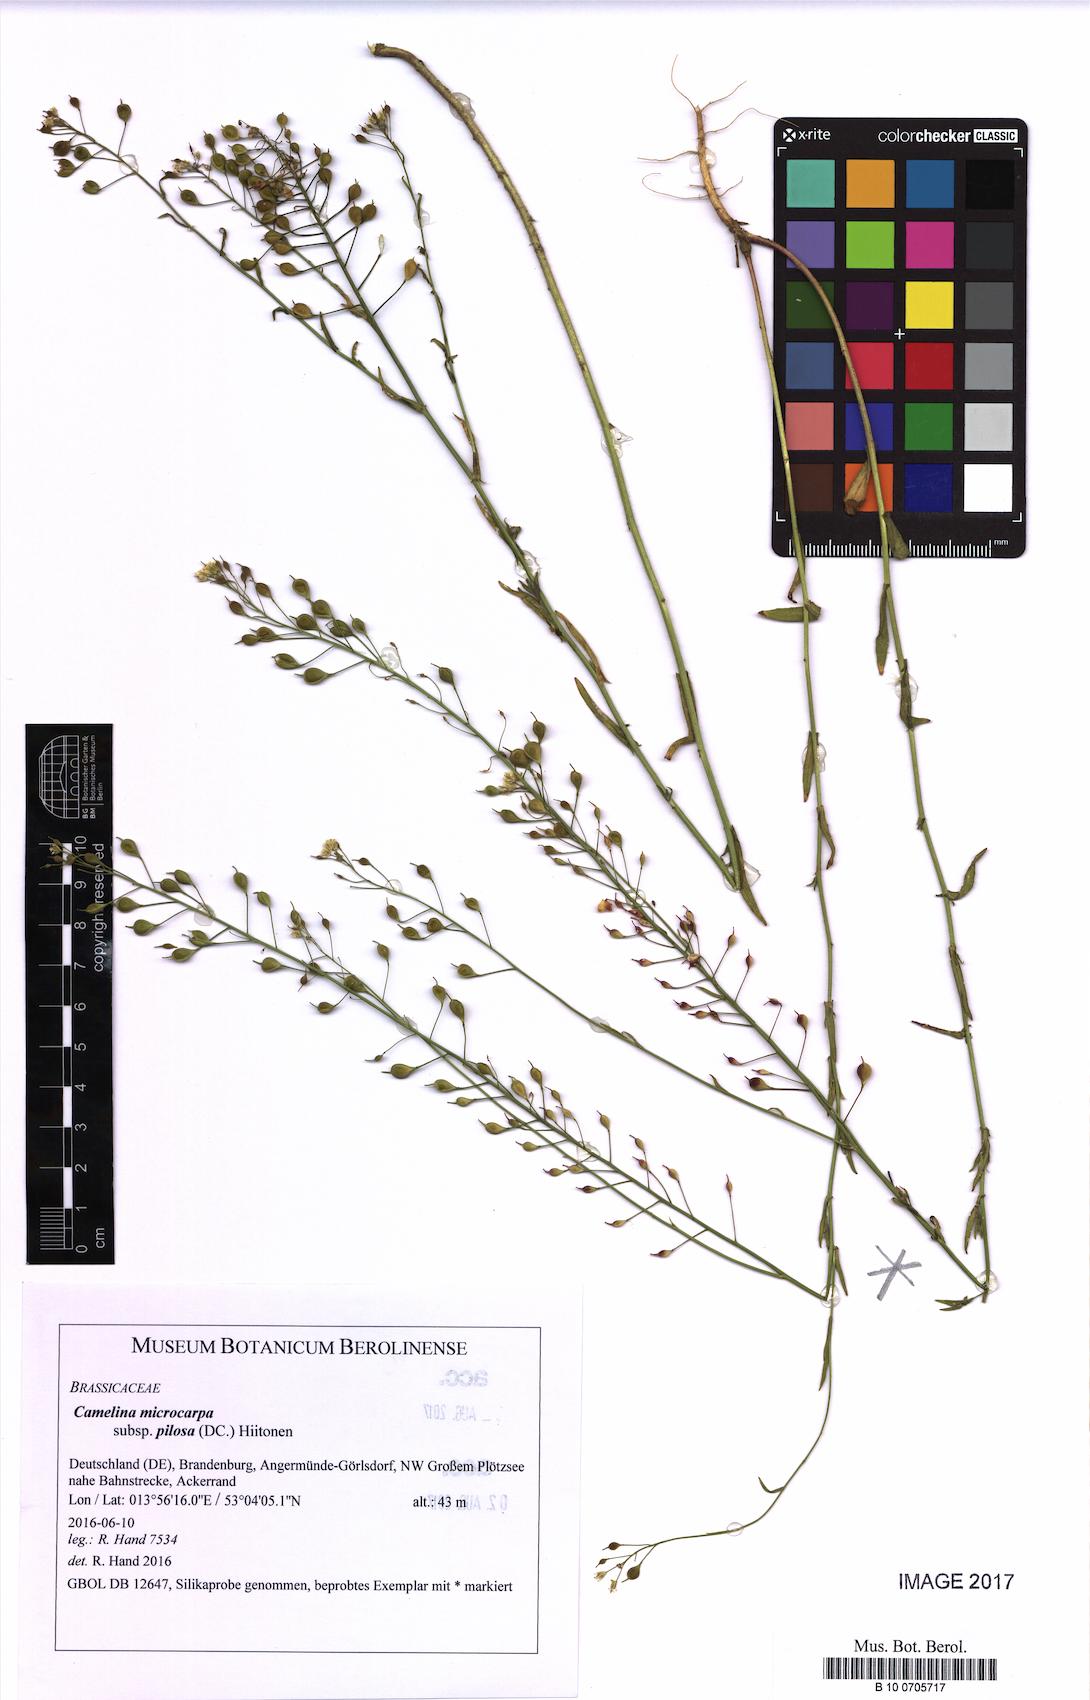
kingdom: Plantae
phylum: Tracheophyta
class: Magnoliopsida
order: Brassicales
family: Brassicaceae
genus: Camelina
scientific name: Camelina microcarpa
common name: Lesser gold-of-pleasure
